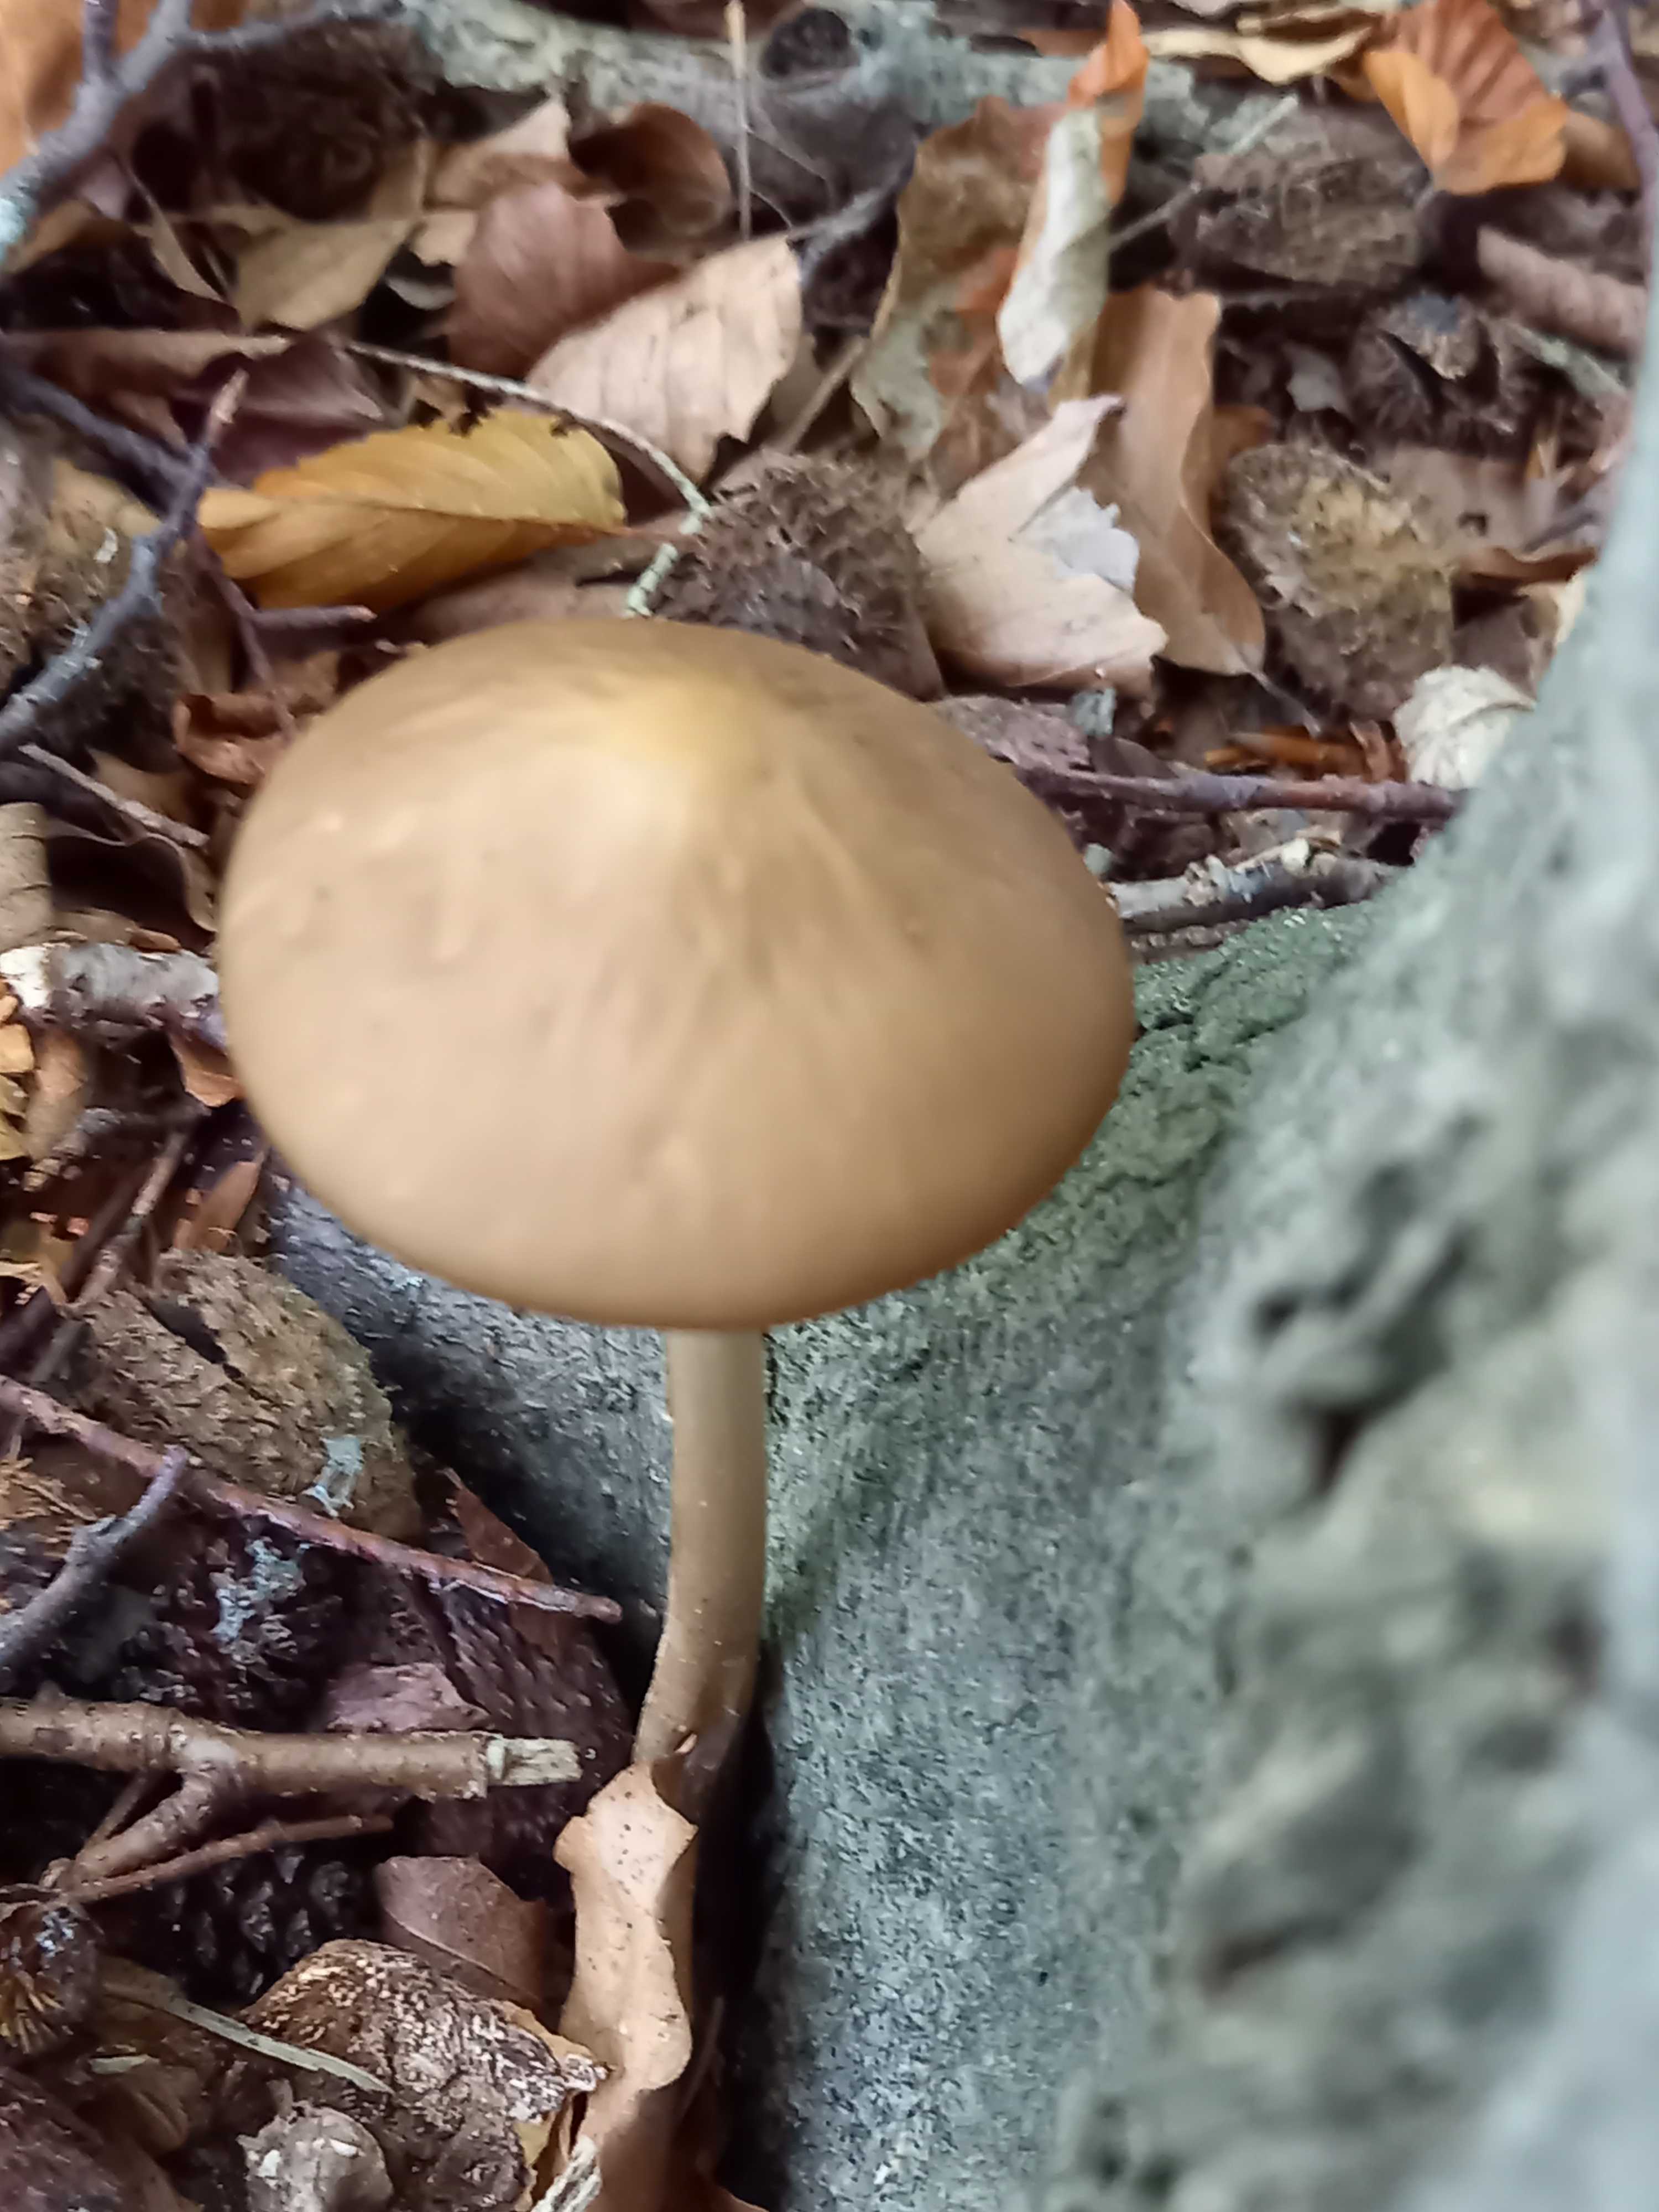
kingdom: Fungi
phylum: Basidiomycota
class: Agaricomycetes
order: Agaricales
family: Physalacriaceae
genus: Hymenopellis
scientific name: Hymenopellis radicata
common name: almindelig pælerodshat
